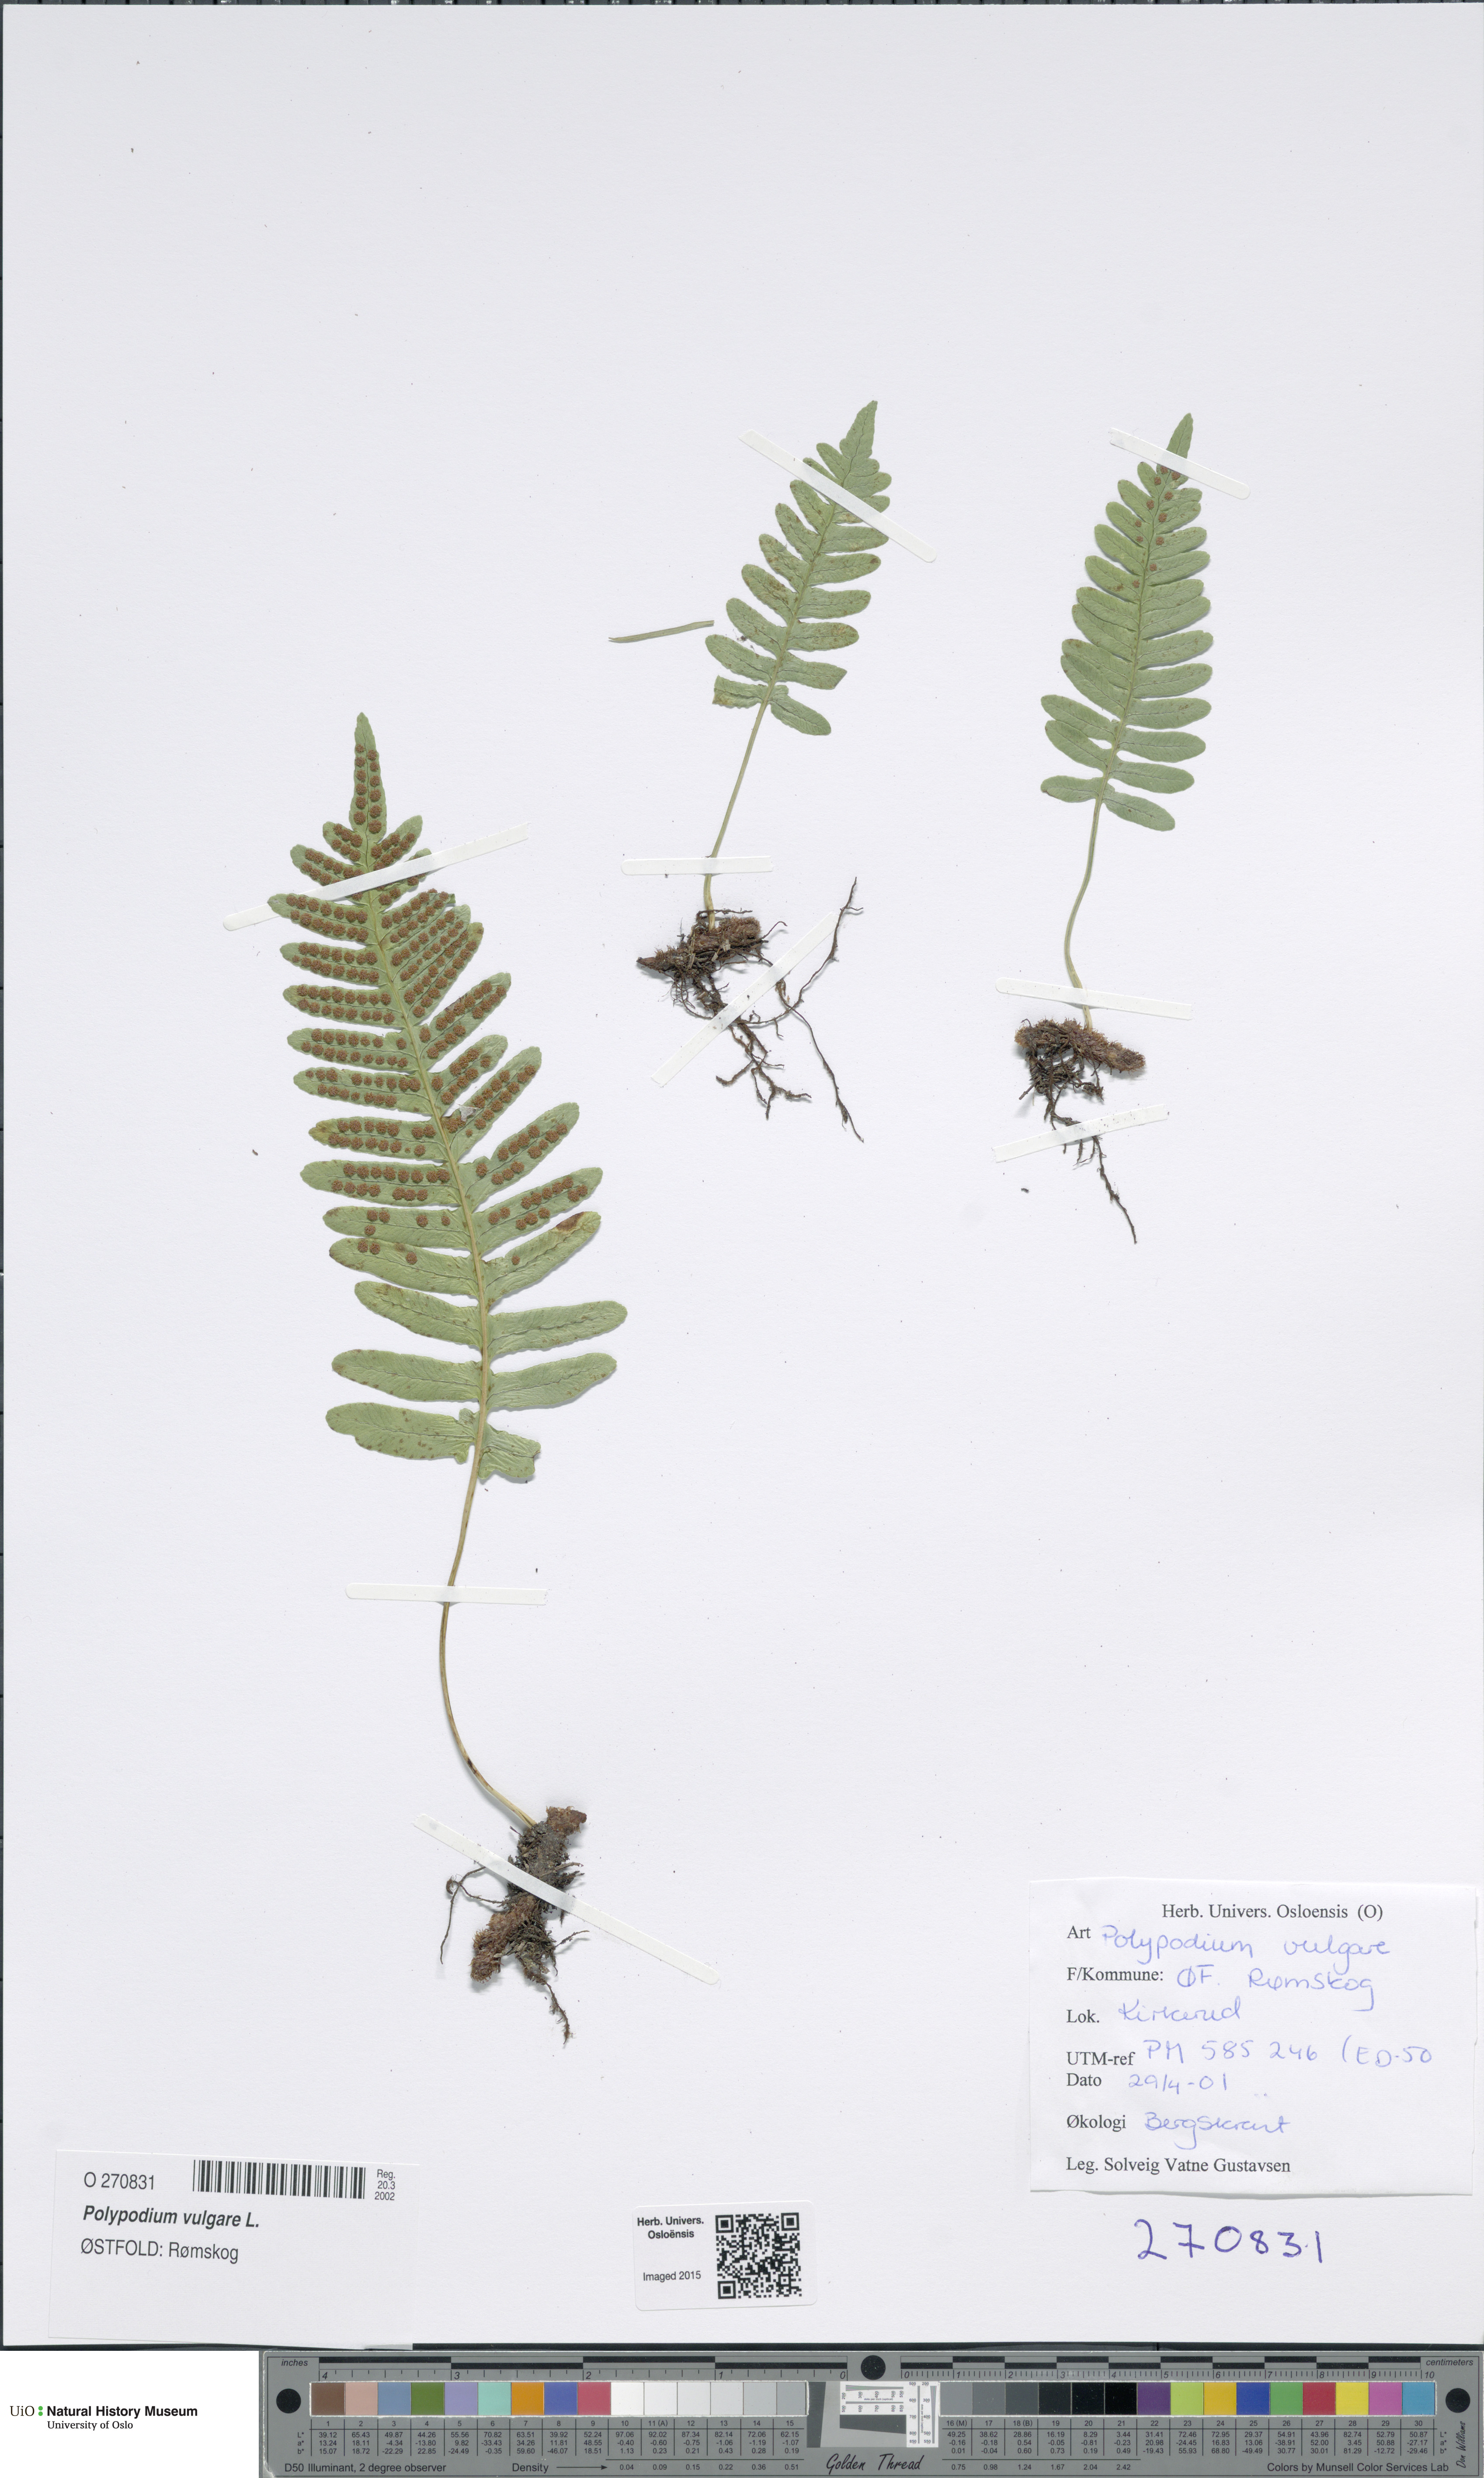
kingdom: Plantae
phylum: Tracheophyta
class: Polypodiopsida
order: Polypodiales
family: Polypodiaceae
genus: Polypodium
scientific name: Polypodium vulgare
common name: Common polypody
